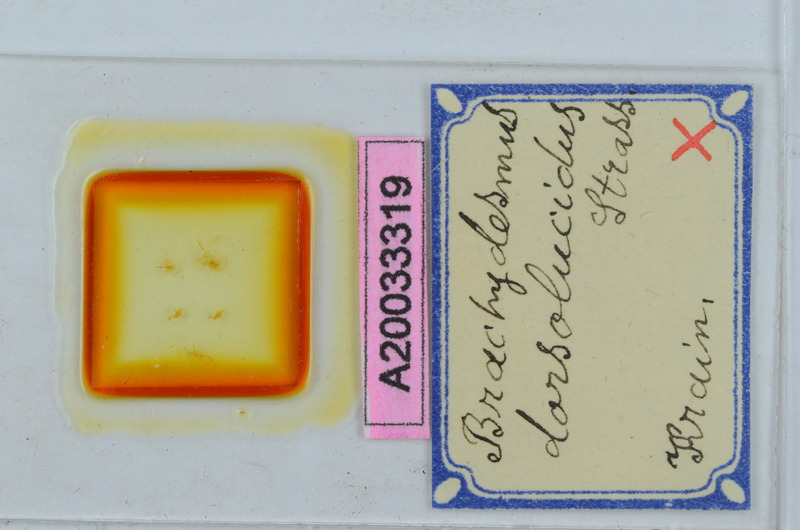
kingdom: Animalia
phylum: Arthropoda
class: Diplopoda
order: Polydesmida
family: Polydesmidae
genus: Brachydesmus
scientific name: Brachydesmus dorsolucidus
